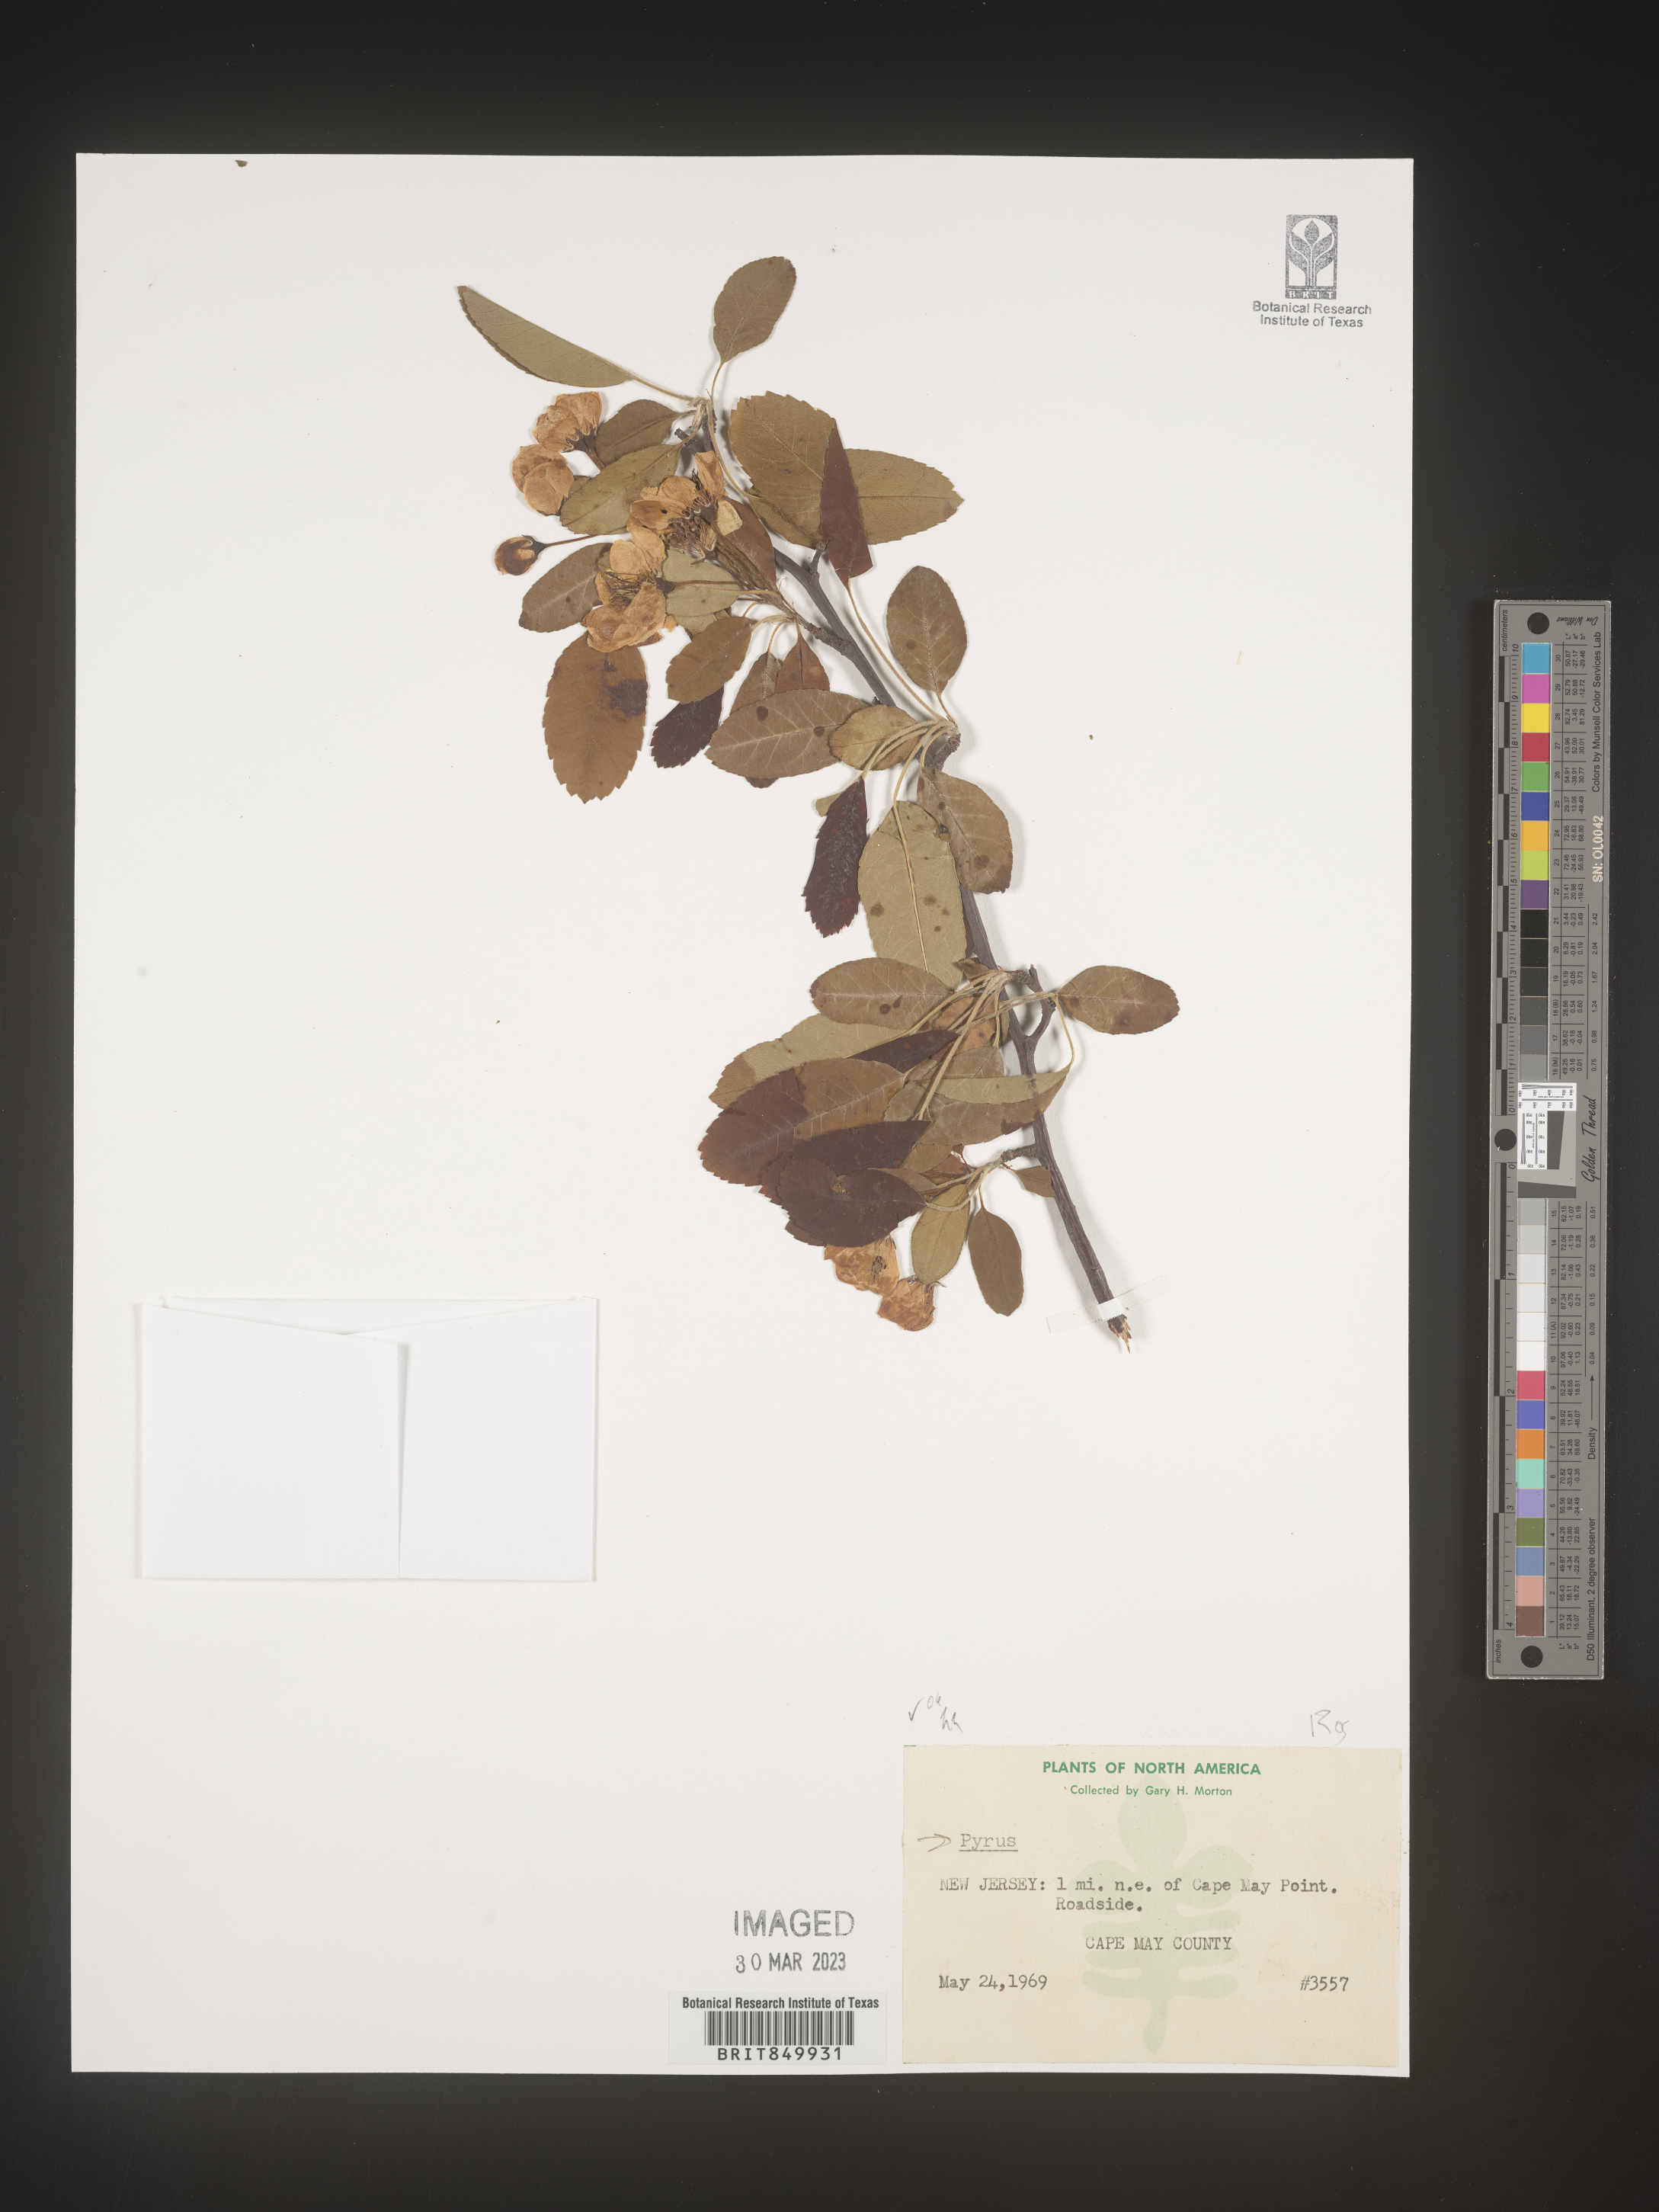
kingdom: Plantae
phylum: Tracheophyta
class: Magnoliopsida
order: Rosales
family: Rosaceae
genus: Pyrus
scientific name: Pyrus
